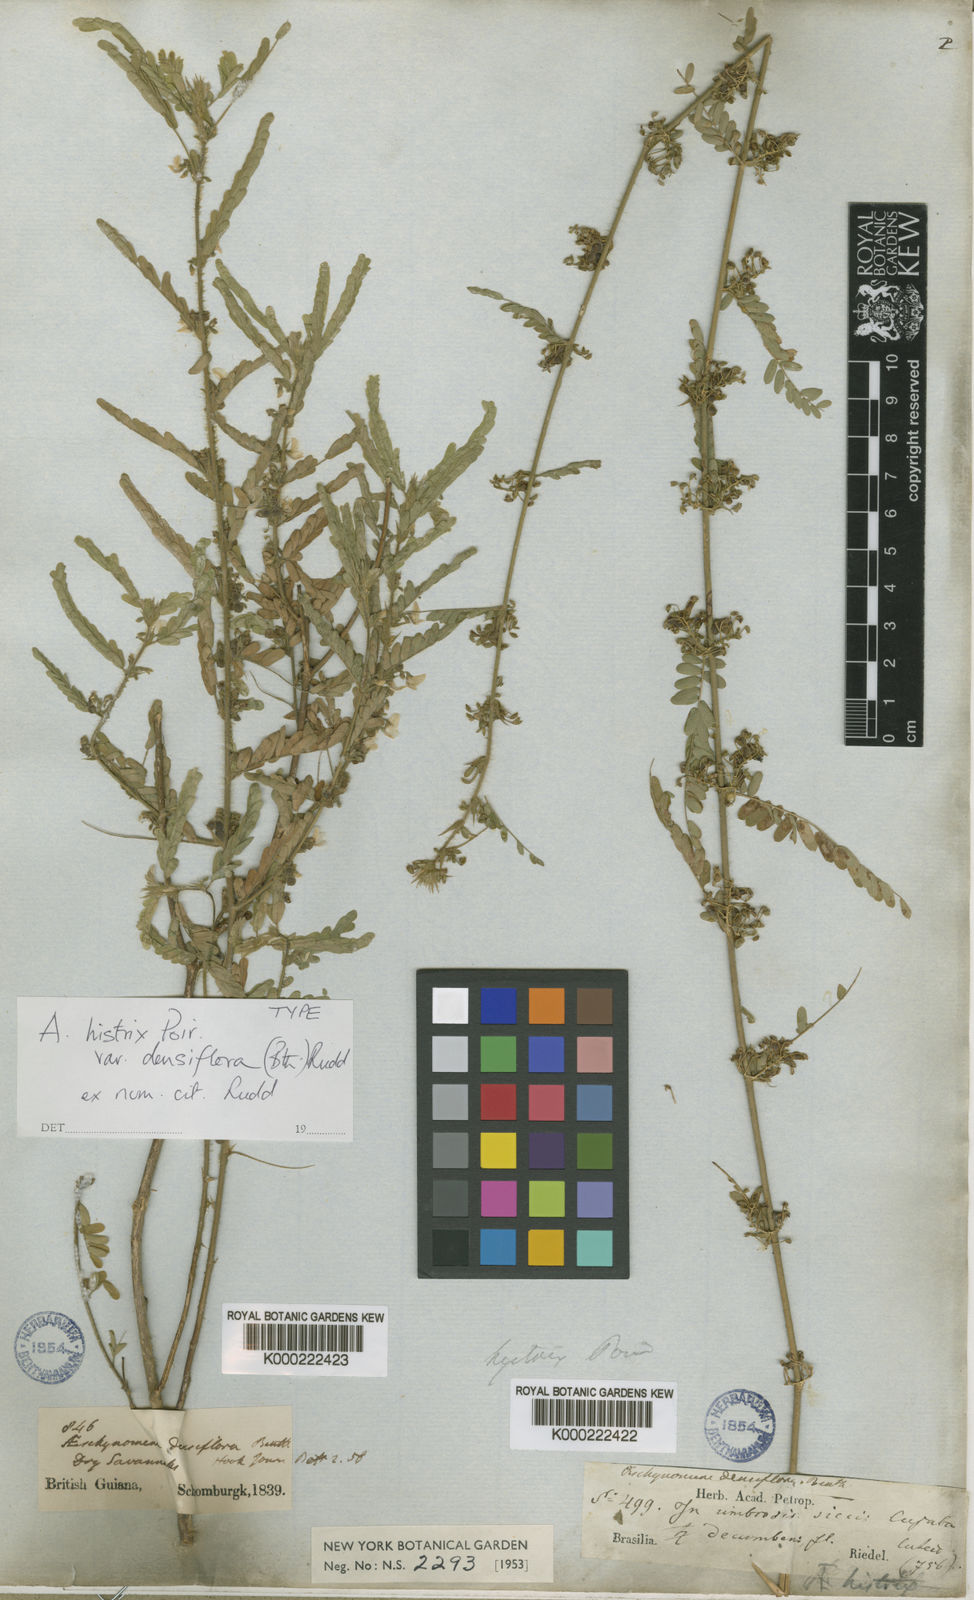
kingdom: Plantae
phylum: Tracheophyta
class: Magnoliopsida
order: Fabales
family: Fabaceae
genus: Ctenodon
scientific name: Ctenodon histrix
